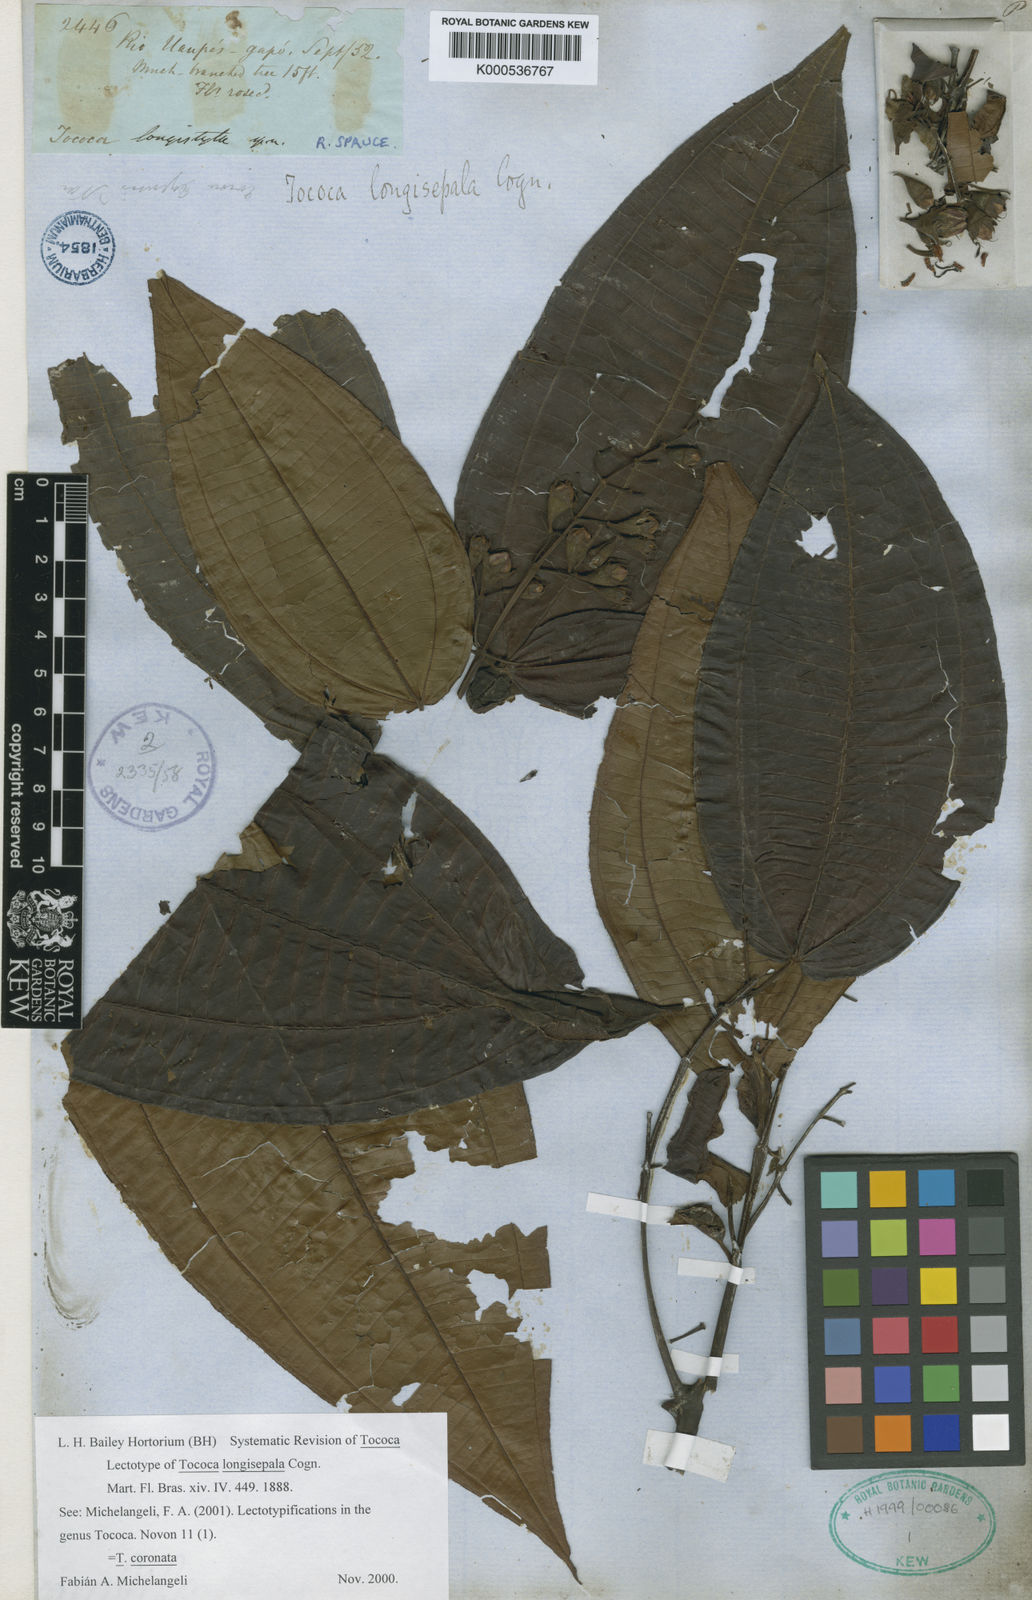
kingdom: Plantae
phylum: Tracheophyta
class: Magnoliopsida
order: Myrtales
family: Melastomataceae
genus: Miconia
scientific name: Miconia tococoronata
